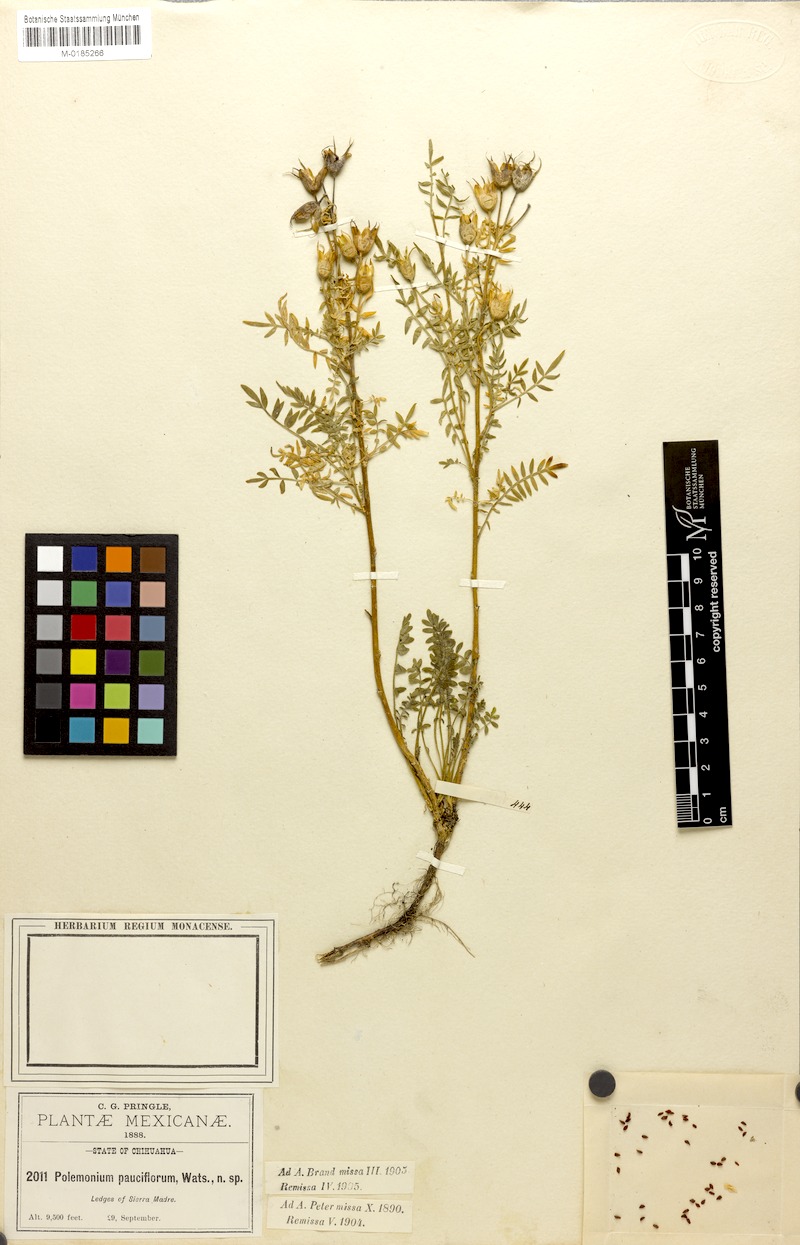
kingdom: Plantae
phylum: Tracheophyta
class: Magnoliopsida
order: Ericales
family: Polemoniaceae
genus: Polemonium
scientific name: Polemonium pauciflorum
